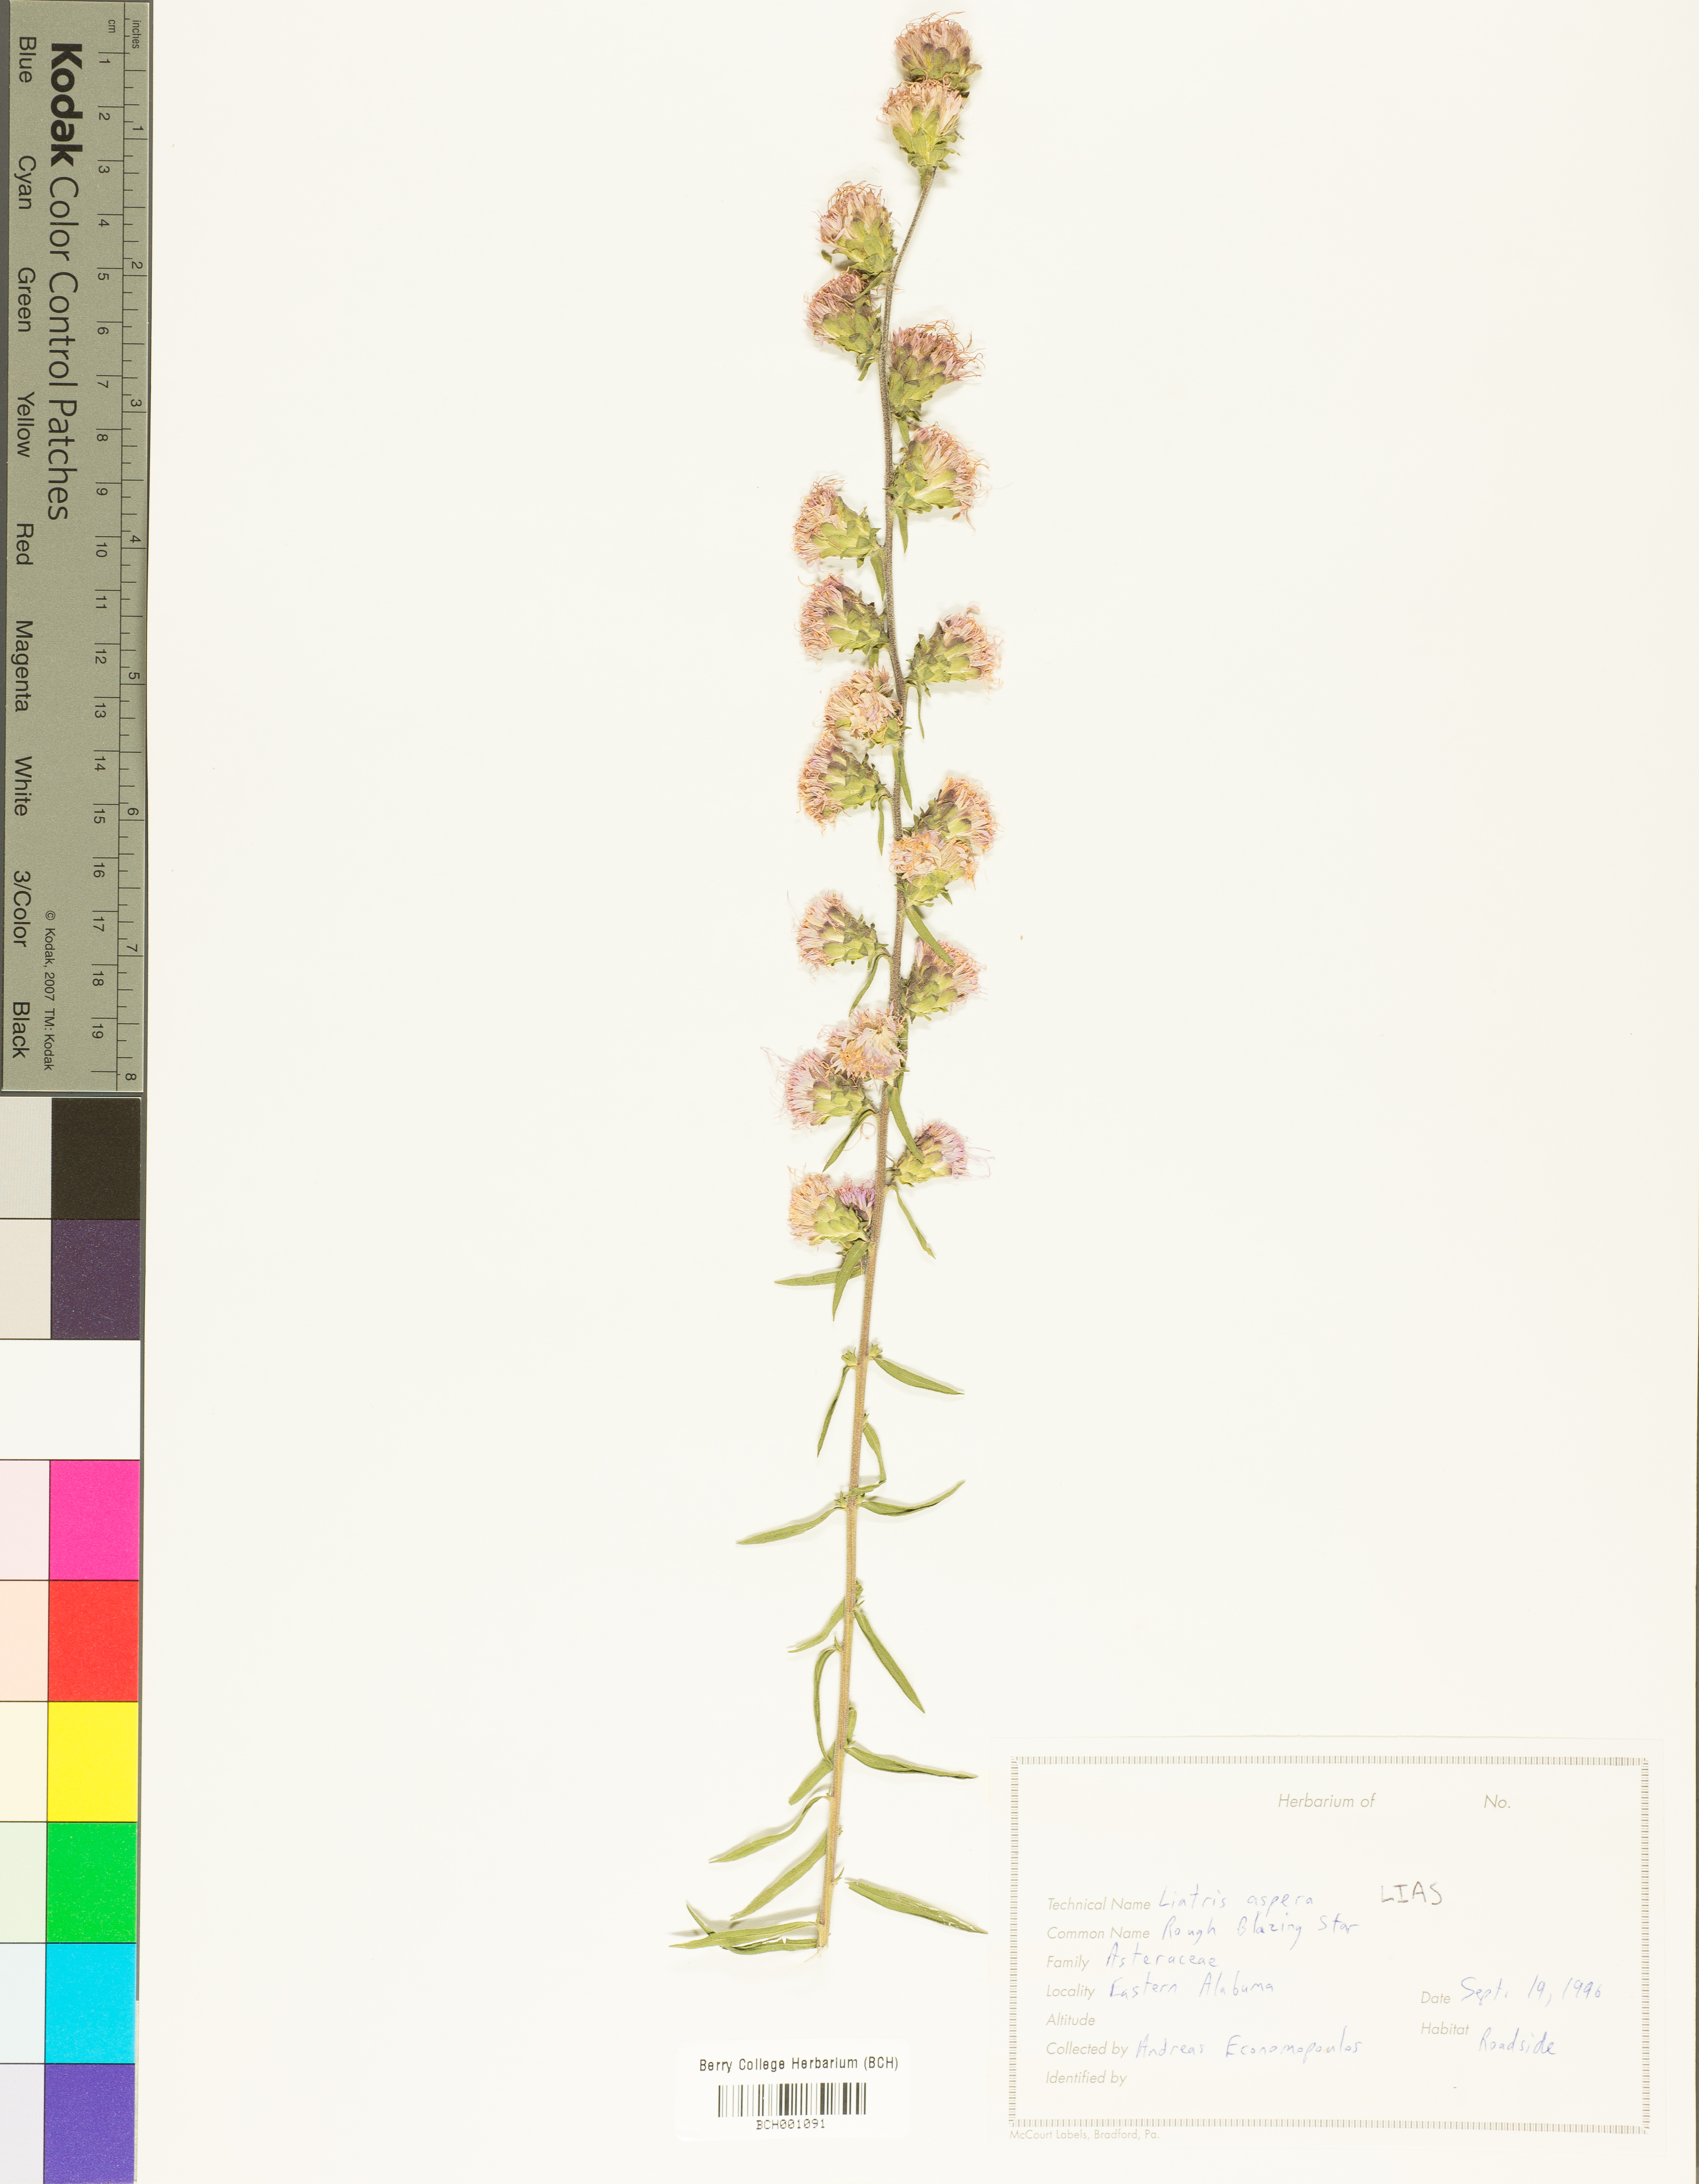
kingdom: Plantae
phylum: Tracheophyta
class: Magnoliopsida
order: Asterales
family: Asteraceae
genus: Liatris
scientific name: Liatris aspera
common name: Lacerate blazing-star
